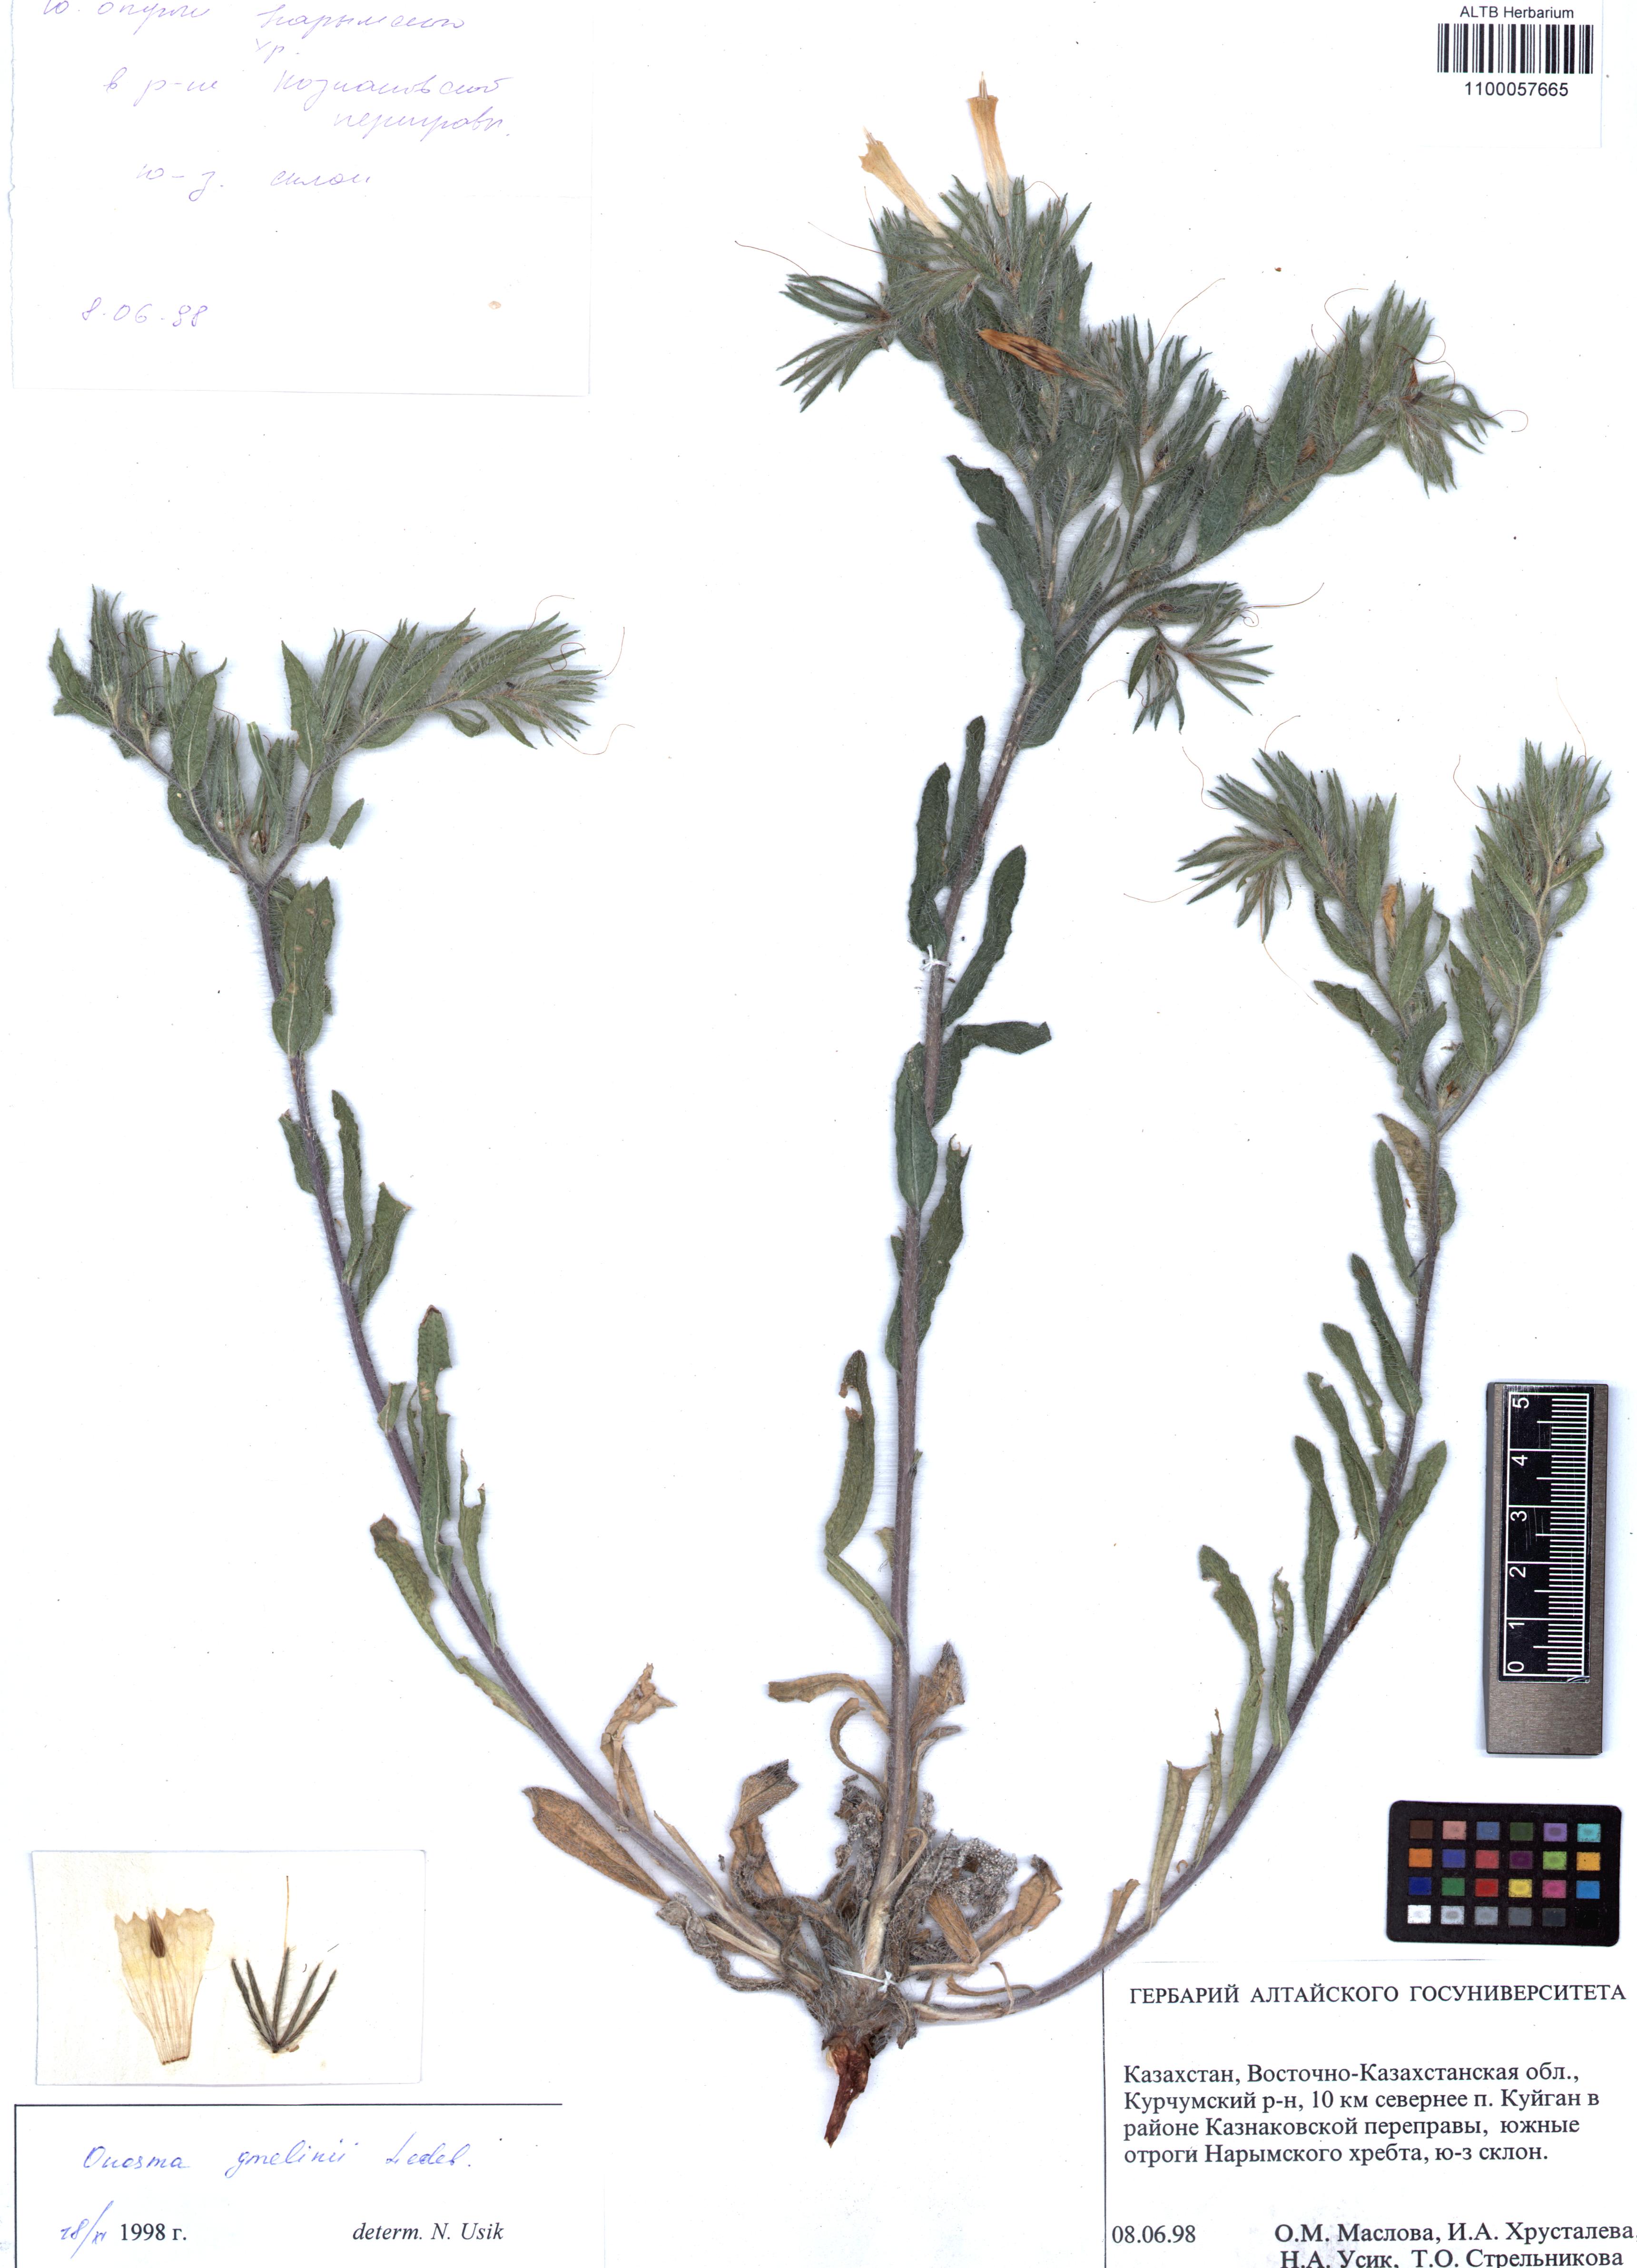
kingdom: Plantae
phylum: Tracheophyta
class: Magnoliopsida
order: Boraginales
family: Boraginaceae
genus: Onosma
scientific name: Onosma gmelinii
